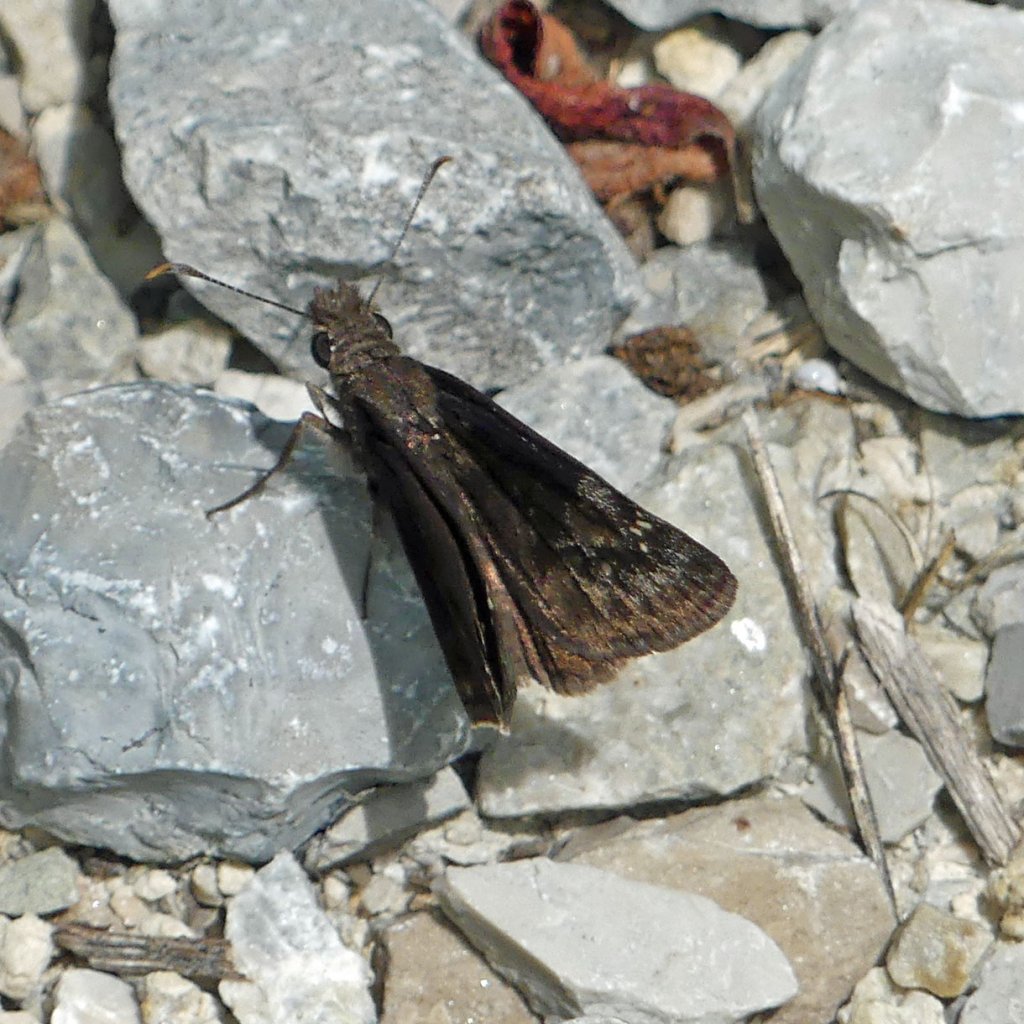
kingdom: Animalia
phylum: Arthropoda
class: Insecta
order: Lepidoptera
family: Hesperiidae
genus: Gesta
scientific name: Gesta
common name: Wild Indigo Duskywing
